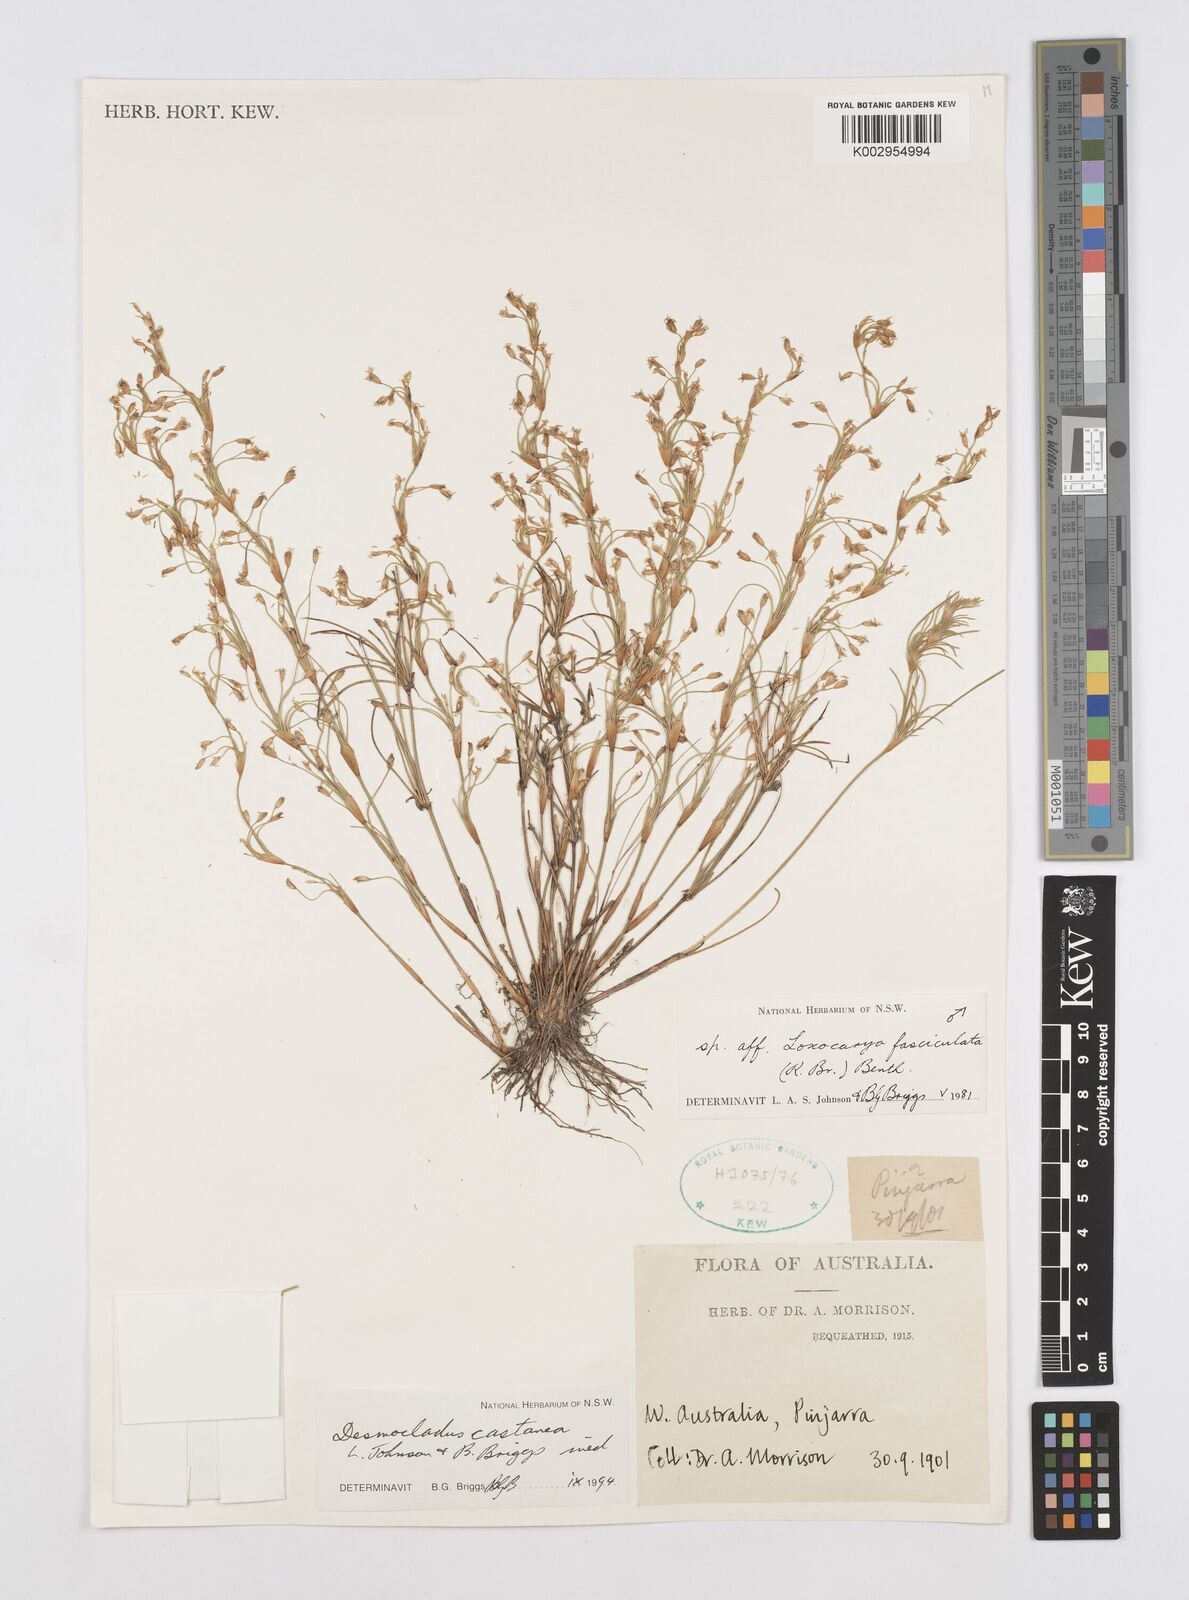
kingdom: Plantae
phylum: Tracheophyta
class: Liliopsida
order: Poales
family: Restionaceae
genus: Desmocladus
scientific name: Desmocladus castaneus
